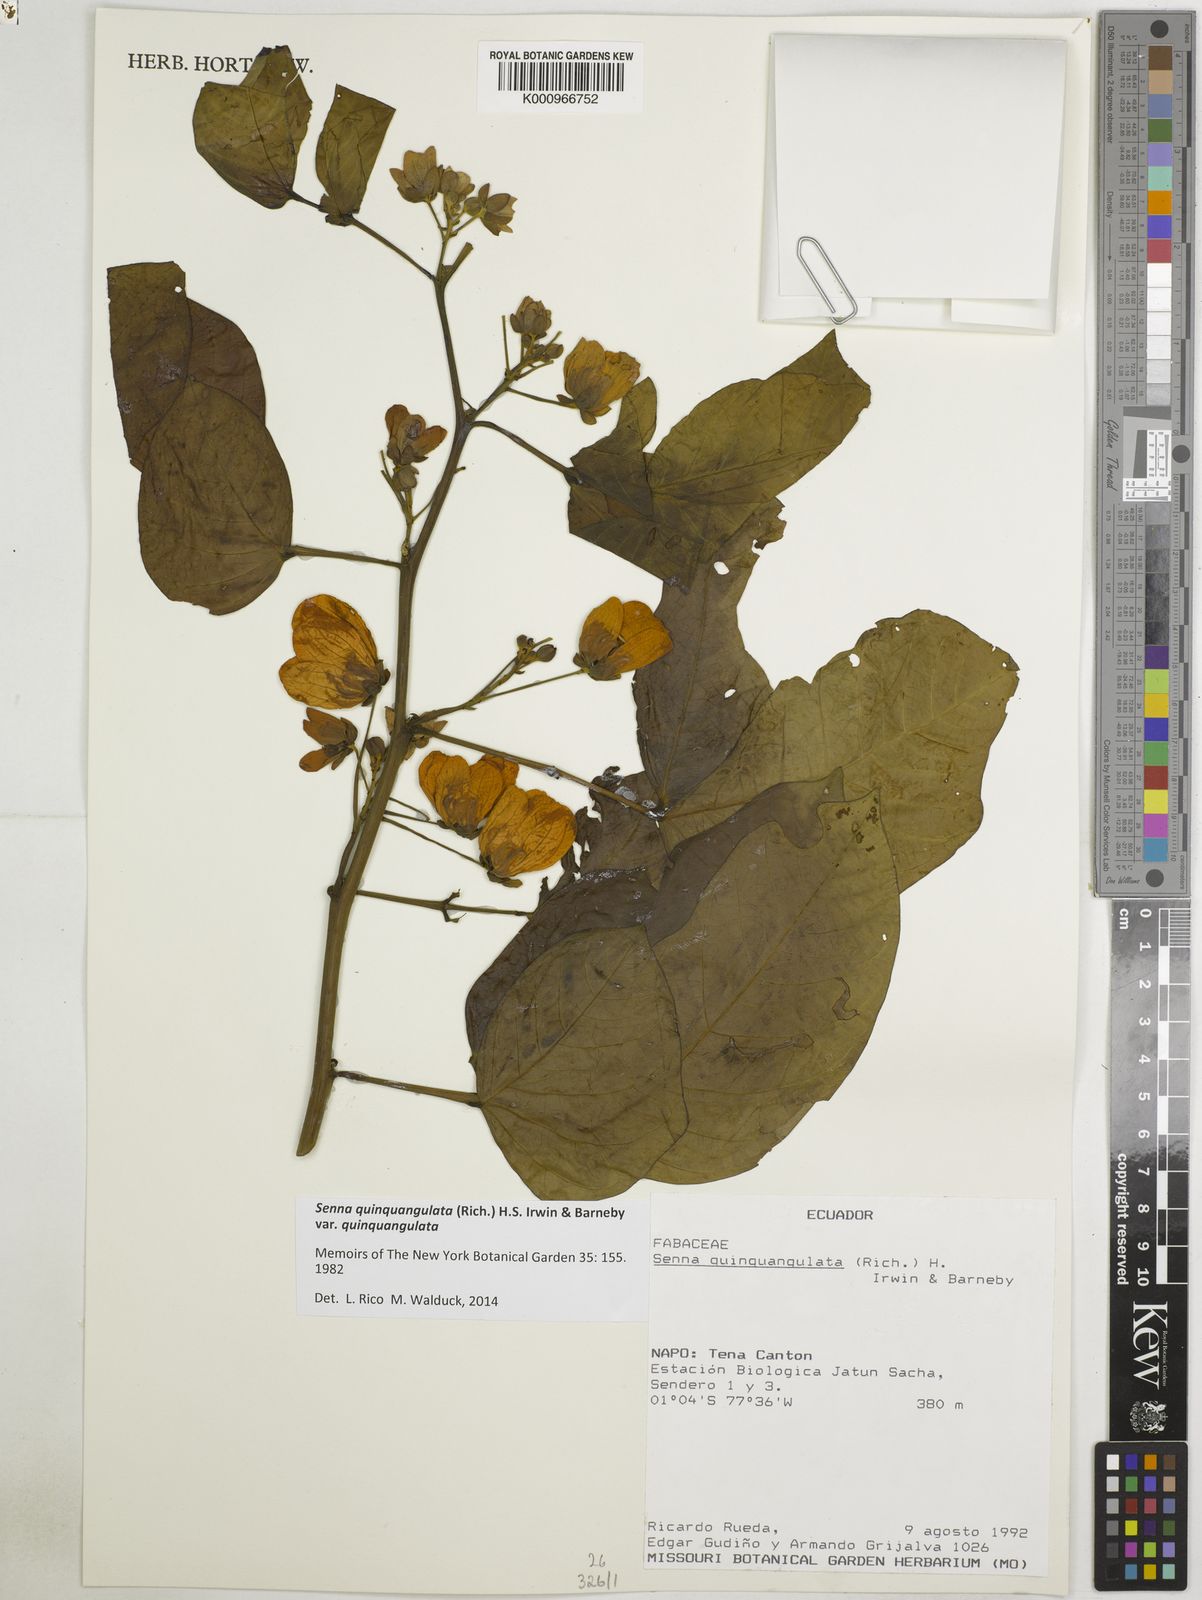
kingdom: Plantae
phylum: Tracheophyta
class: Magnoliopsida
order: Fabales
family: Fabaceae
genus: Senna
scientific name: Senna bacillaris
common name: West indian showertree
